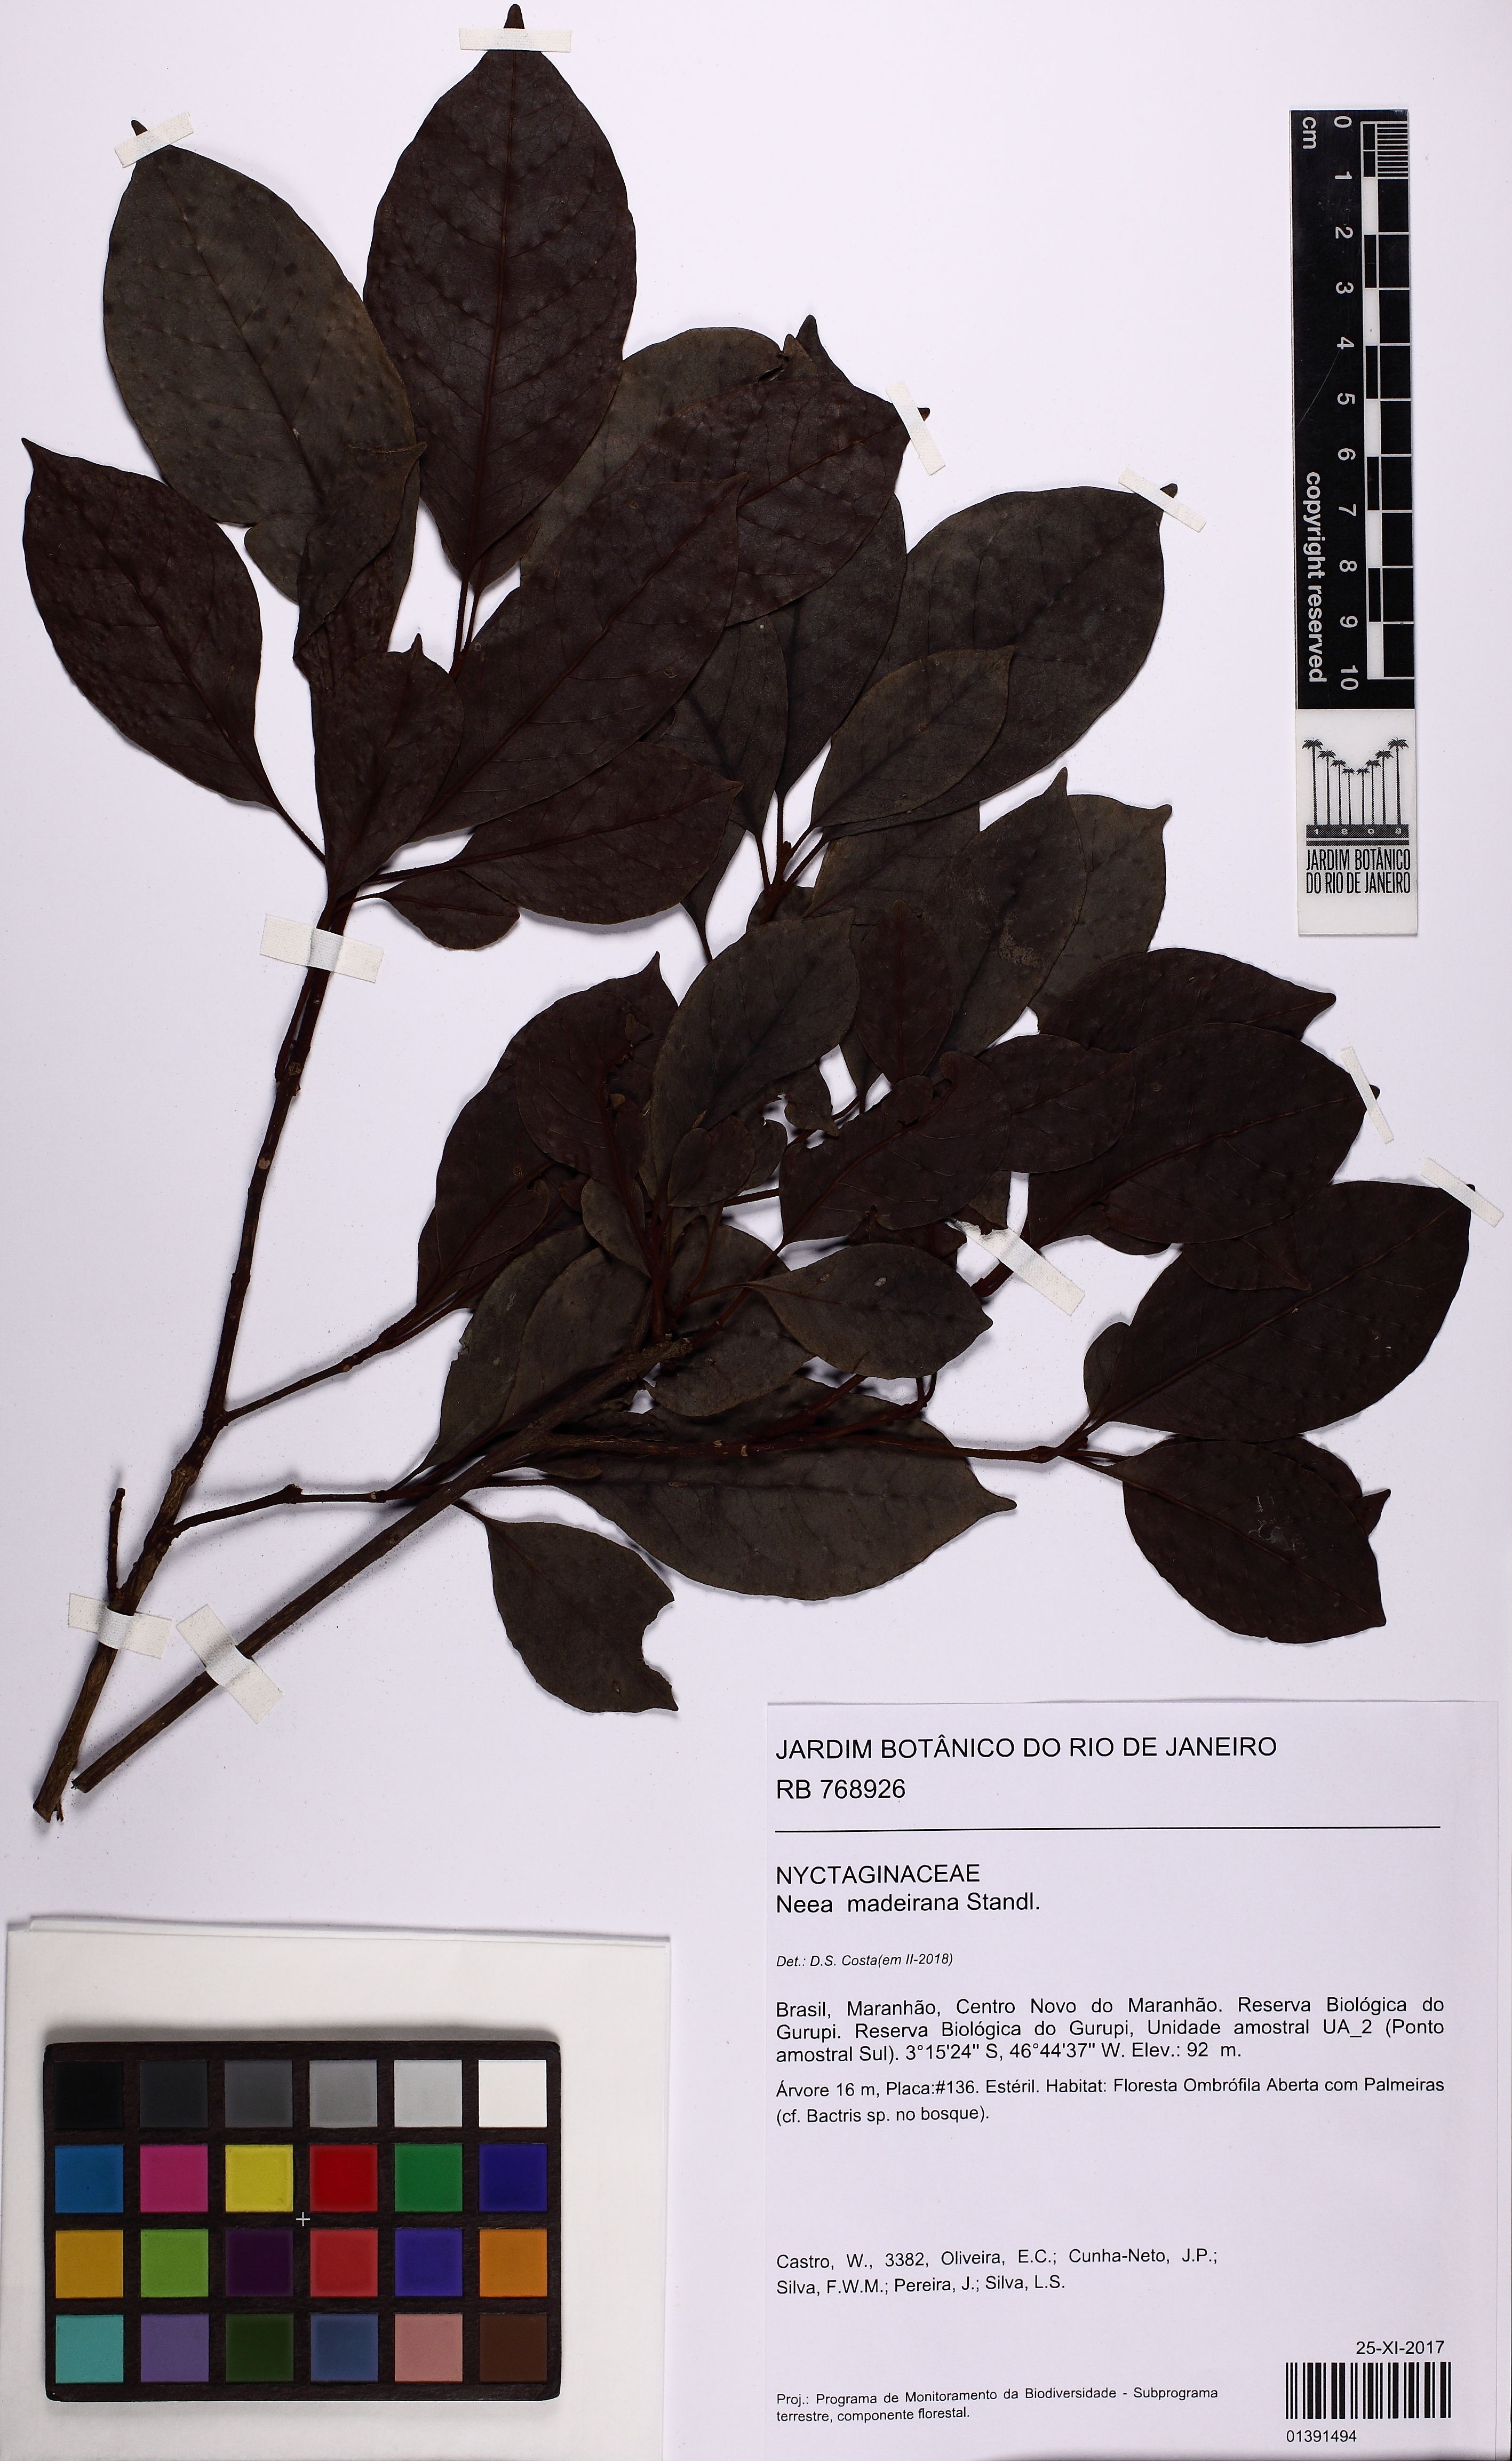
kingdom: Plantae
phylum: Tracheophyta
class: Magnoliopsida
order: Caryophyllales
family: Nyctaginaceae
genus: Neea
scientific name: Neea madeirana
